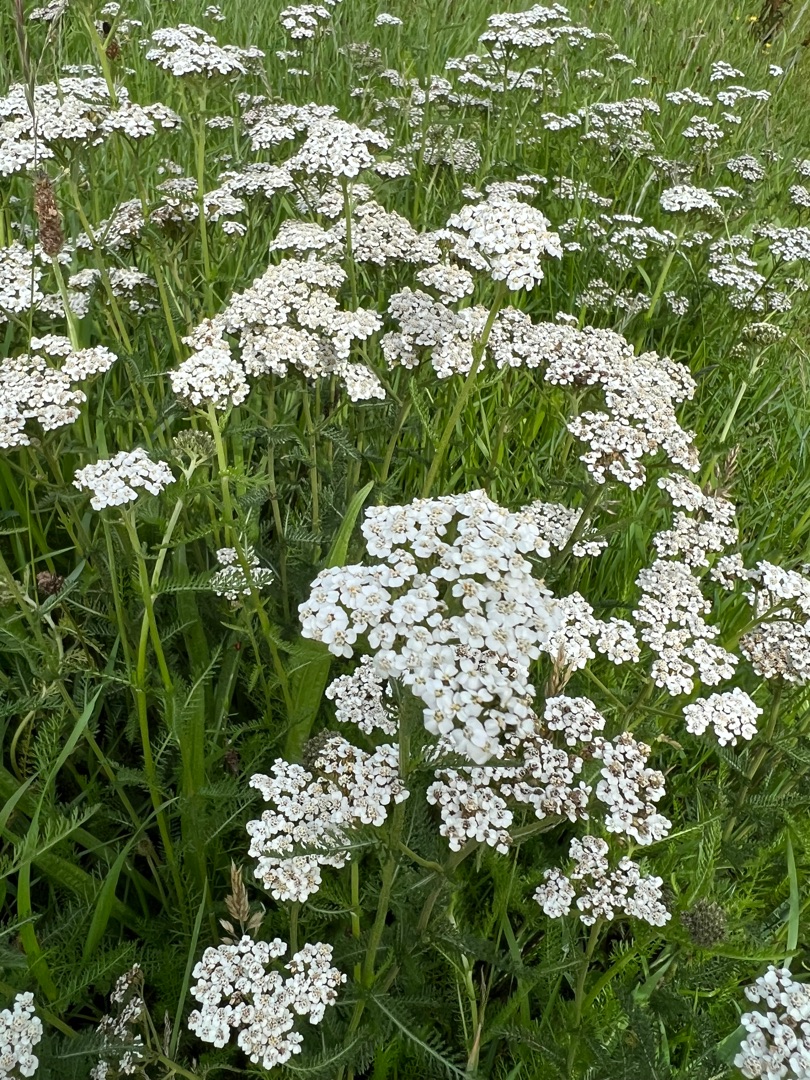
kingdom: Plantae
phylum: Tracheophyta
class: Magnoliopsida
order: Asterales
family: Asteraceae
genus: Achillea
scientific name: Achillea millefolium
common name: Almindelig røllike
